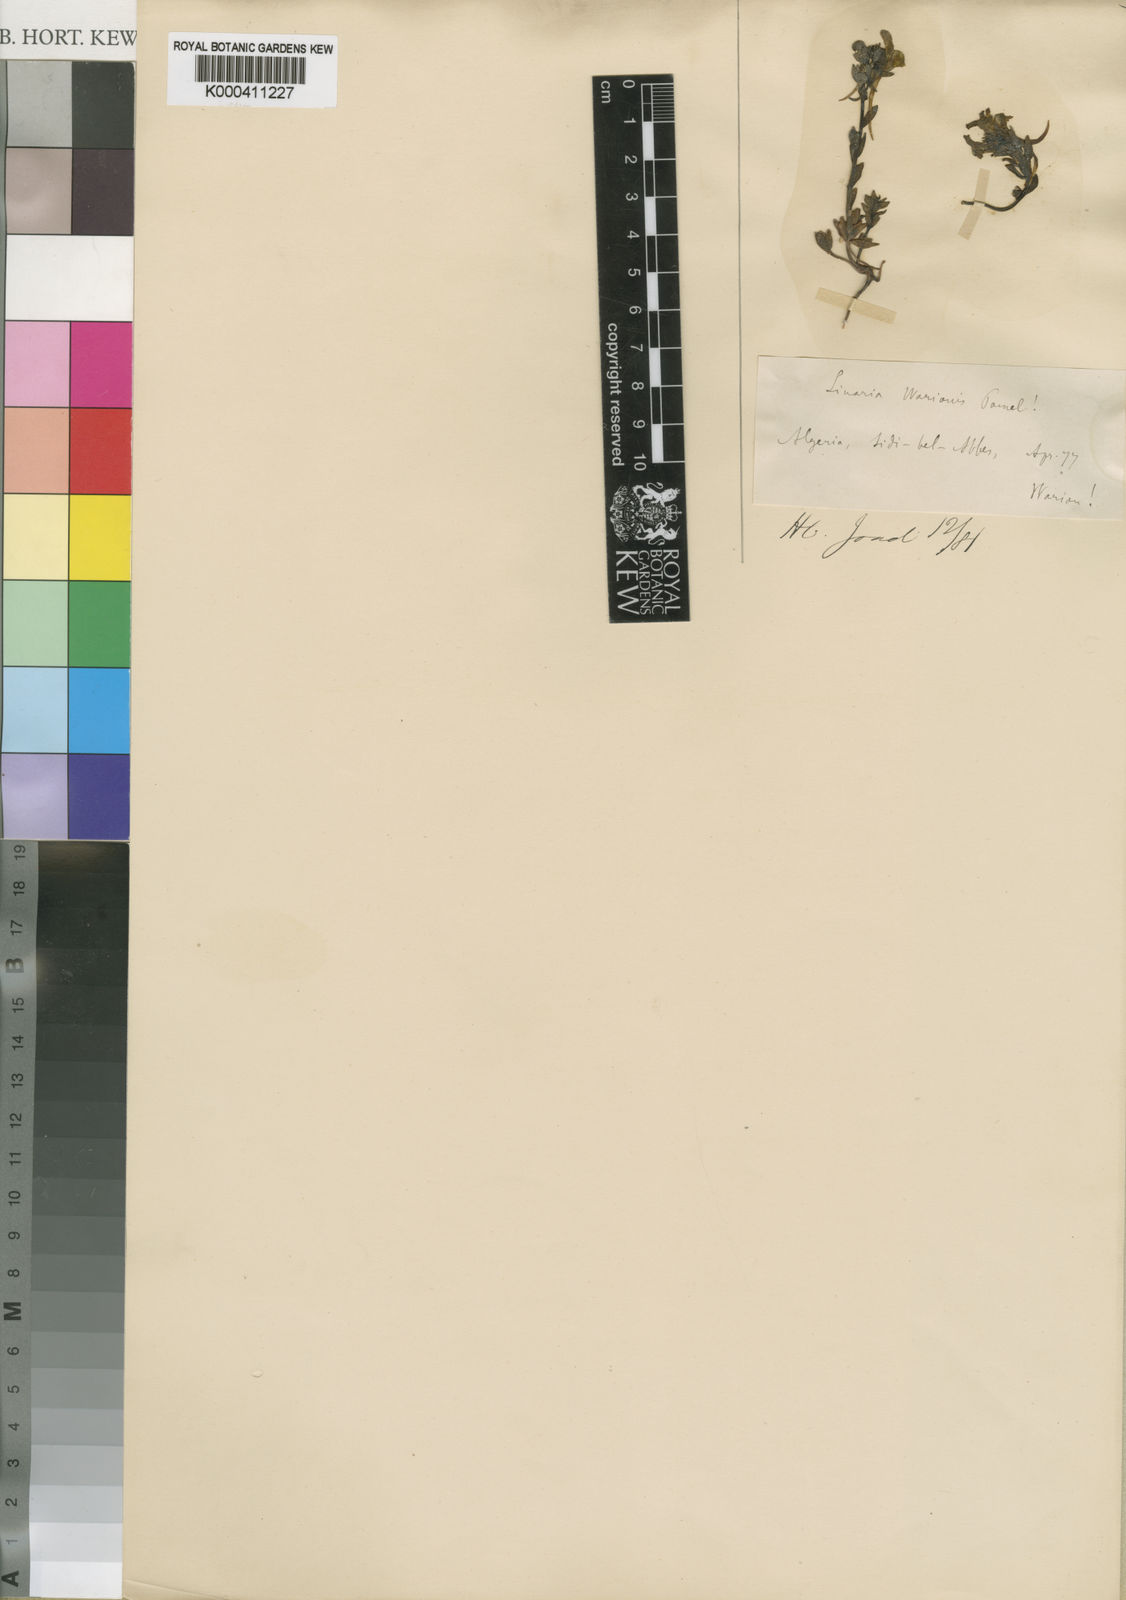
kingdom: Plantae
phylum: Tracheophyta
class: Magnoliopsida
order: Lamiales
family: Plantaginaceae
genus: Linaria
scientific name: Linaria warionis
